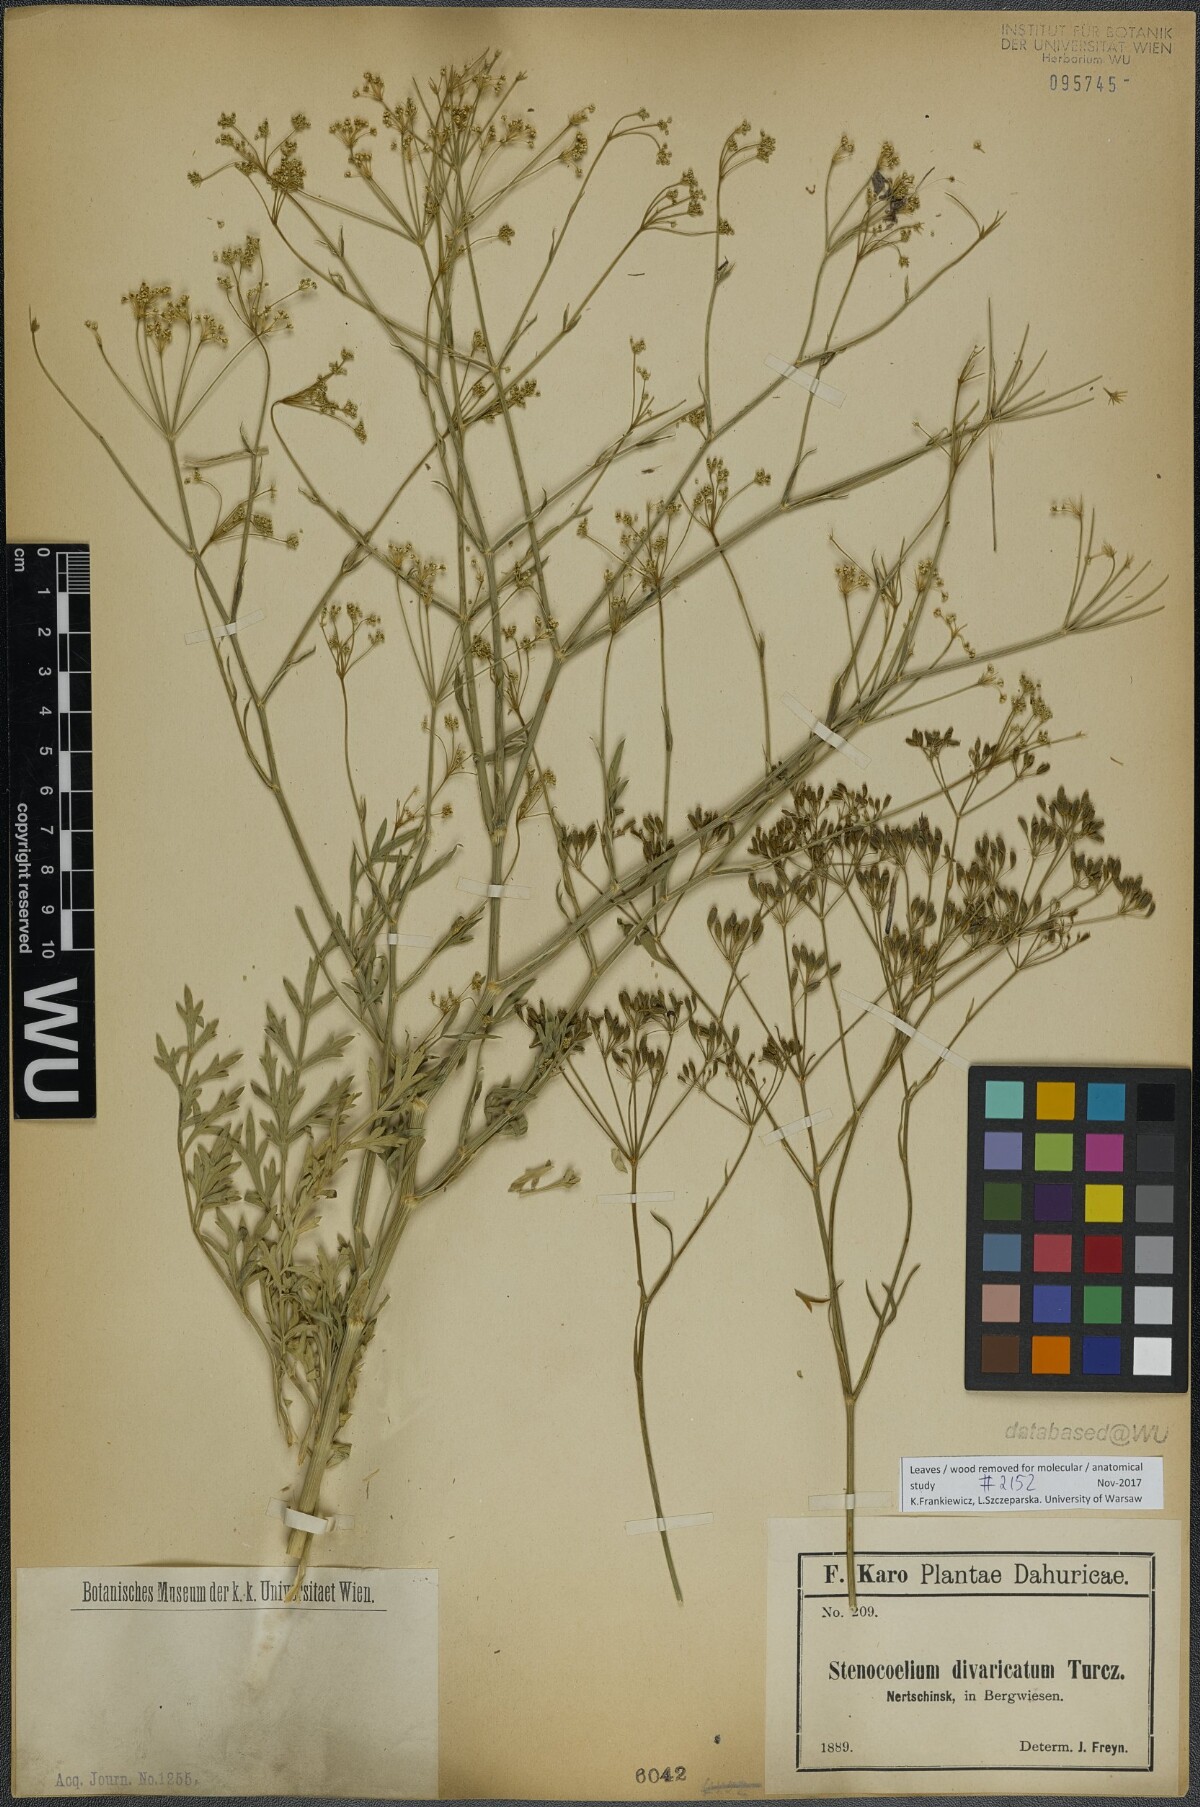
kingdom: Plantae
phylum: Tracheophyta
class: Magnoliopsida
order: Apiales
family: Apiaceae
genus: Saposhnikovia
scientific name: Saposhnikovia divaricata
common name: Siler
